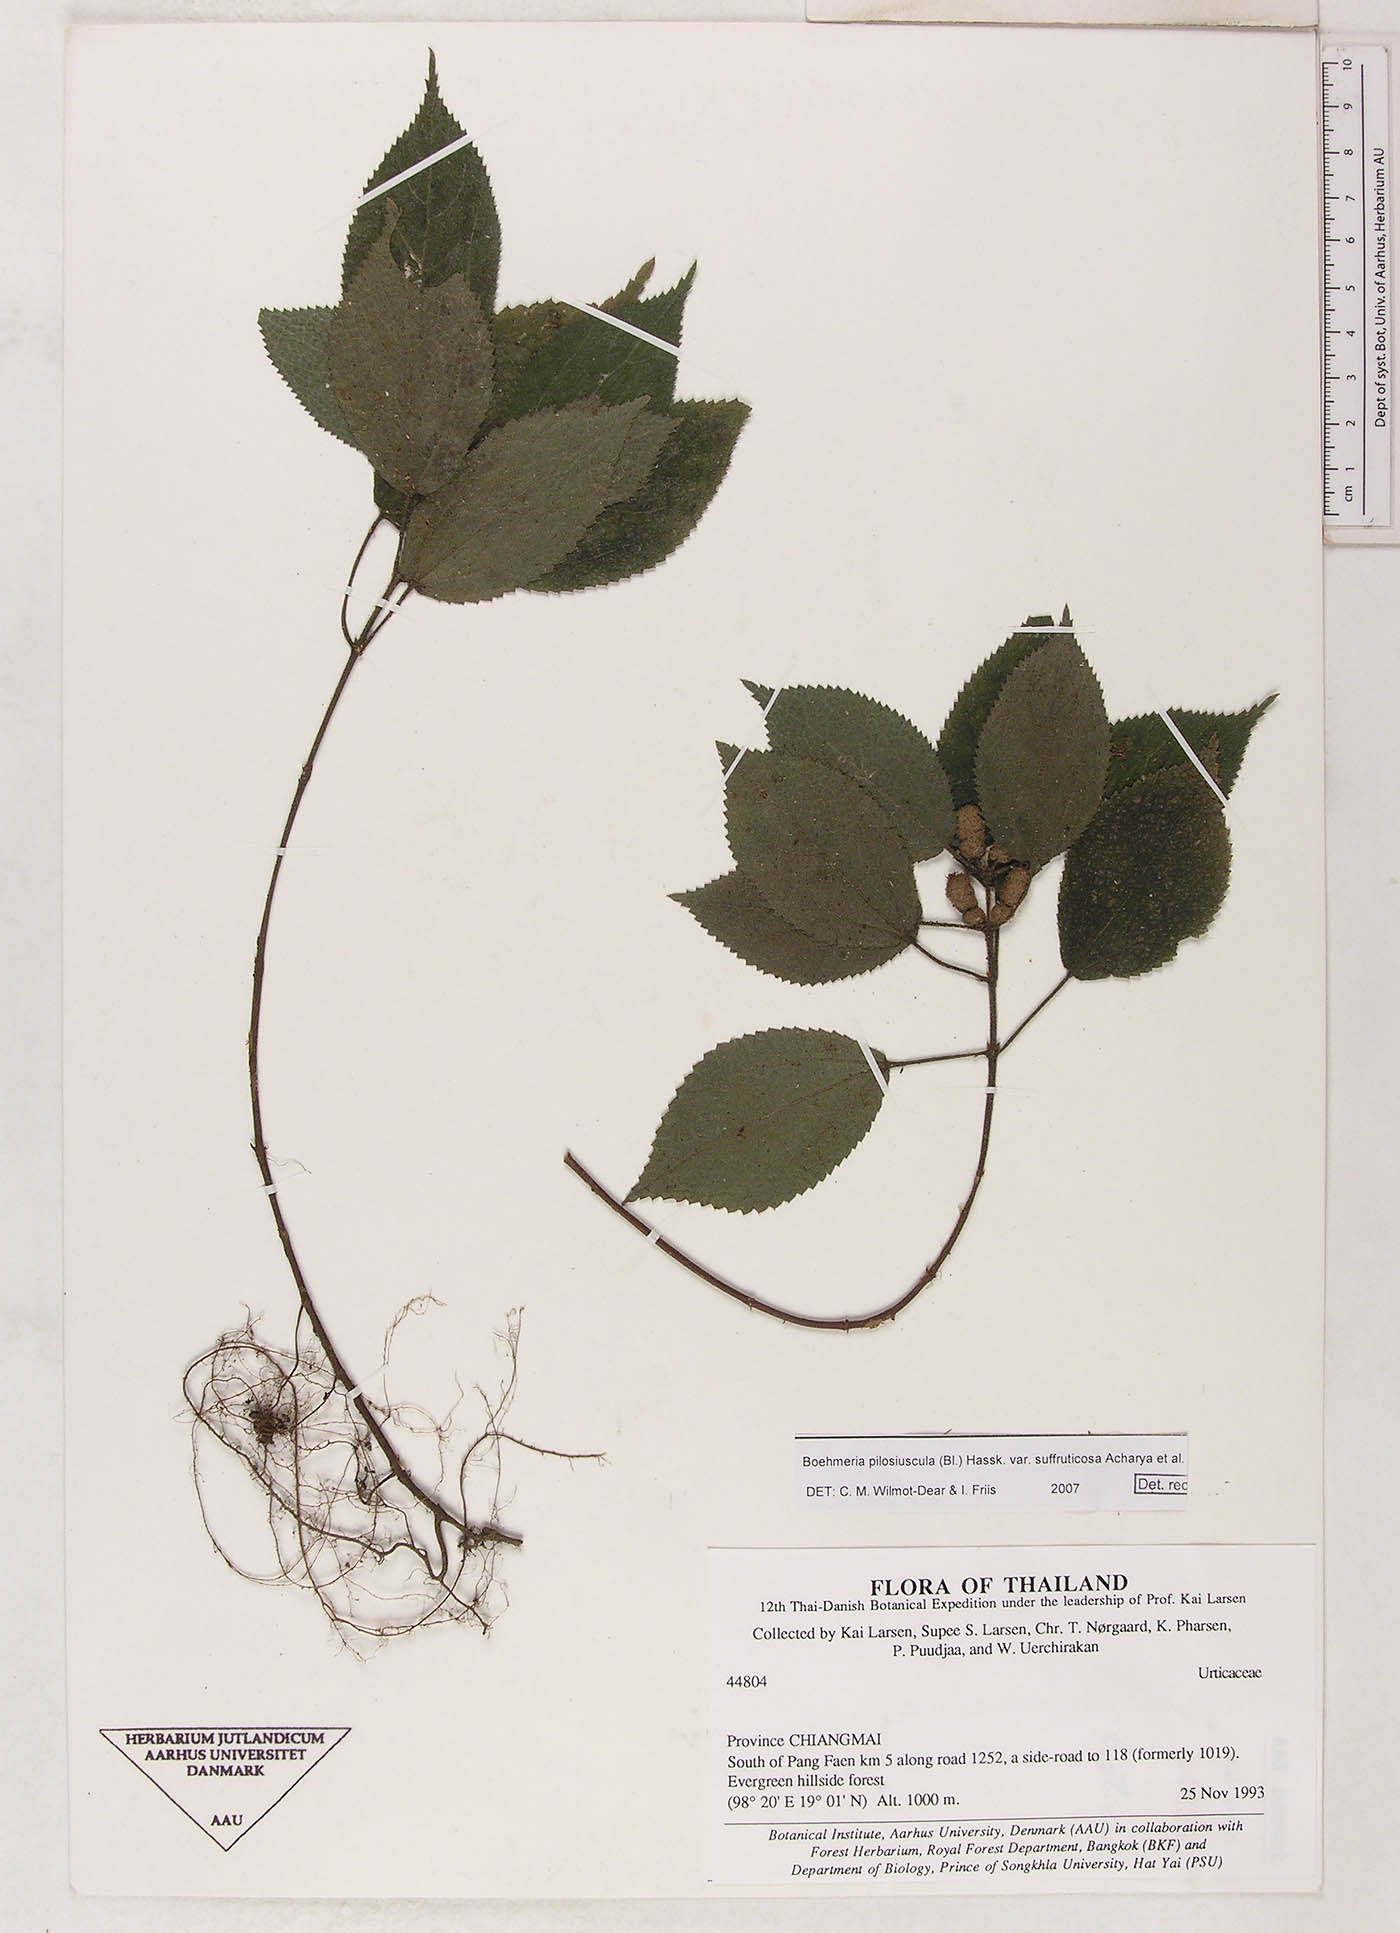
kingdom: Plantae
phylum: Tracheophyta
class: Magnoliopsida
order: Rosales
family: Urticaceae
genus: Boehmeria
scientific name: Boehmeria pilosiuscula
